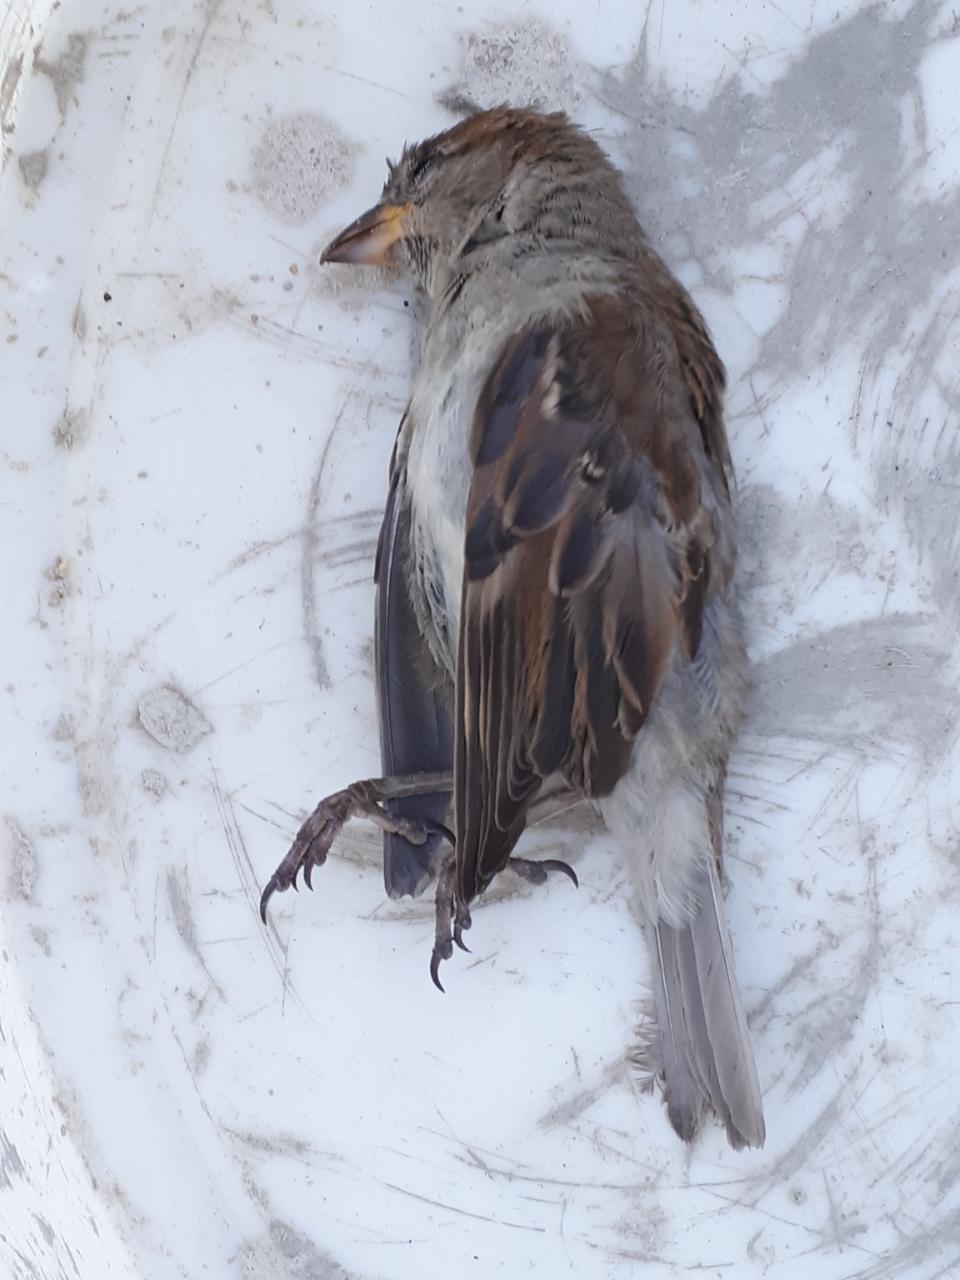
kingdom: Animalia
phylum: Chordata
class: Aves
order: Passeriformes
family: Passeridae
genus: Passer
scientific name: Passer domesticus
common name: House sparrow
